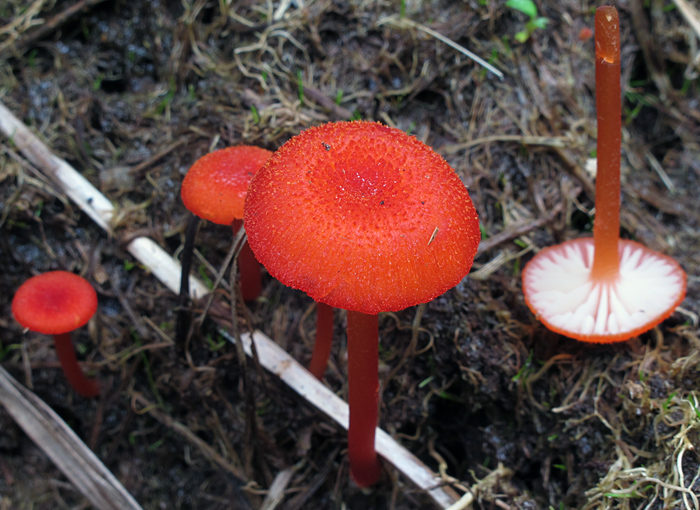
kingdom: Fungi
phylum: Basidiomycota
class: Agaricomycetes
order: Agaricales
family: Hygrophoraceae
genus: Hygrocybe
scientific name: Hygrocybe cantharellus
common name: kantarel-vokshat
